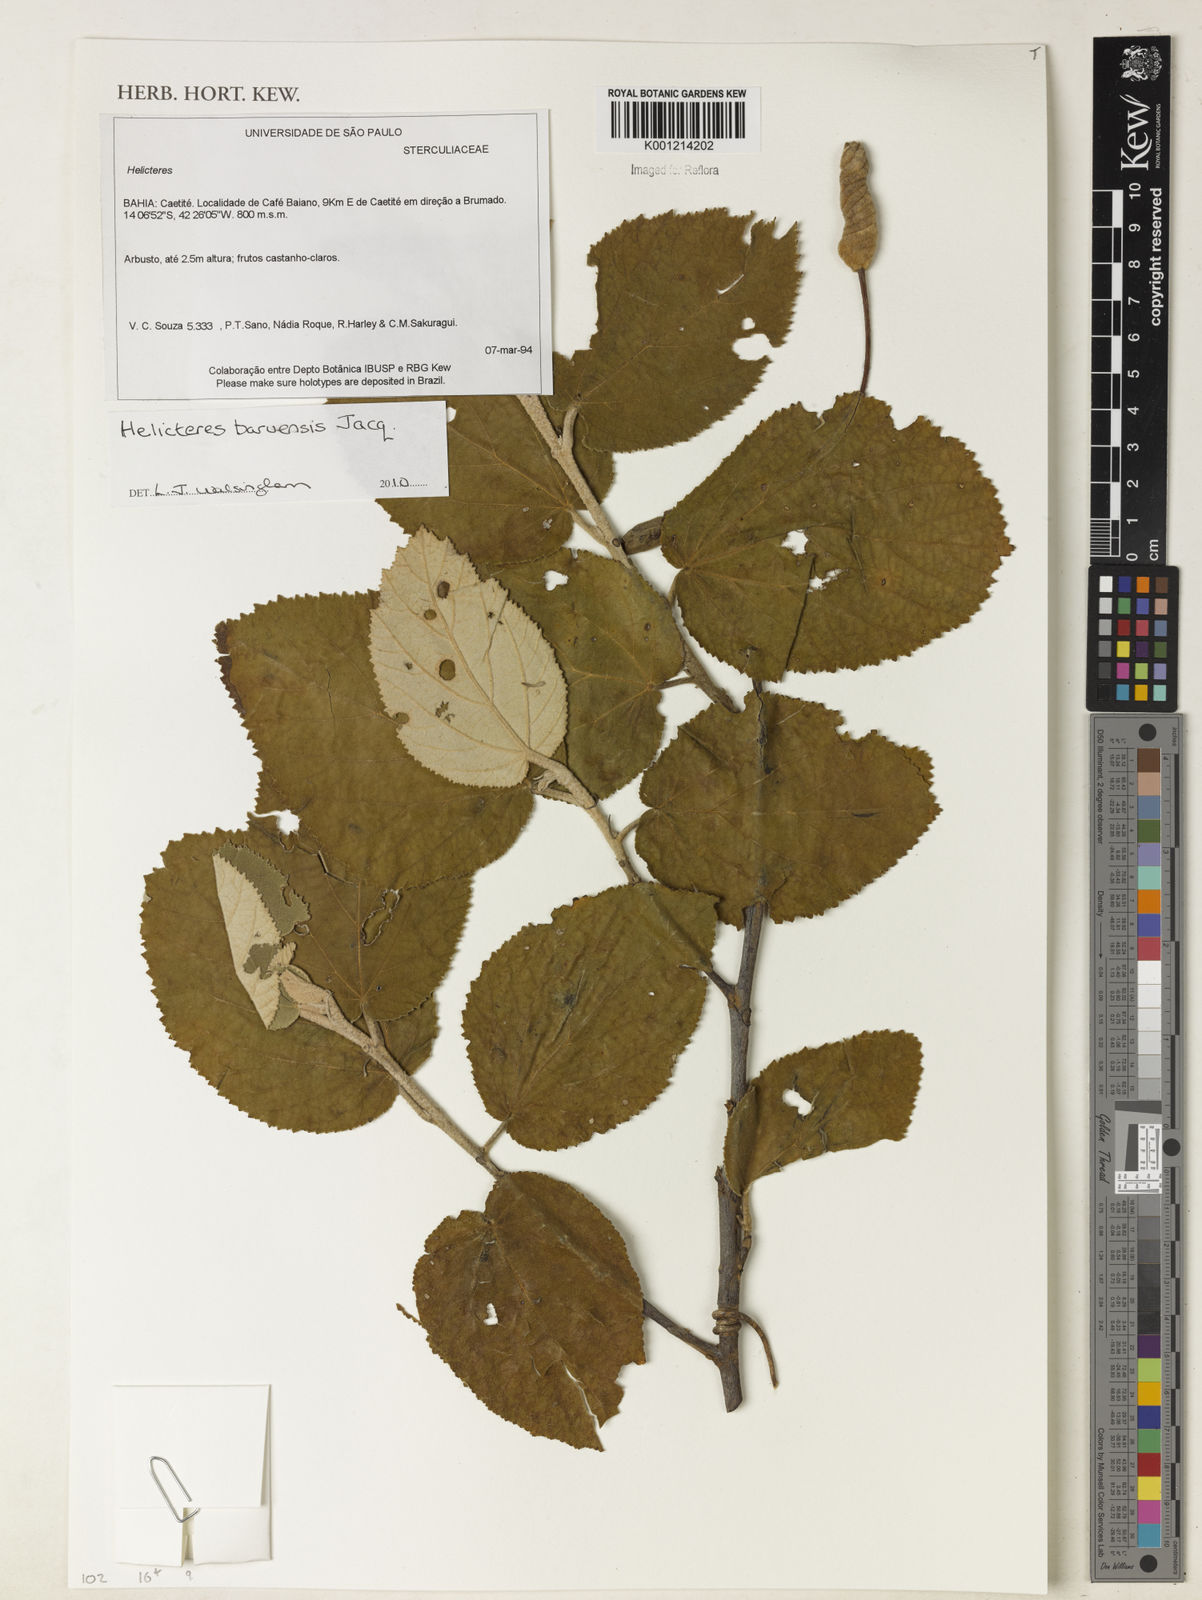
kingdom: Plantae
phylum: Tracheophyta
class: Magnoliopsida
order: Malvales
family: Malvaceae
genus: Helicteres
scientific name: Helicteres baruensis
